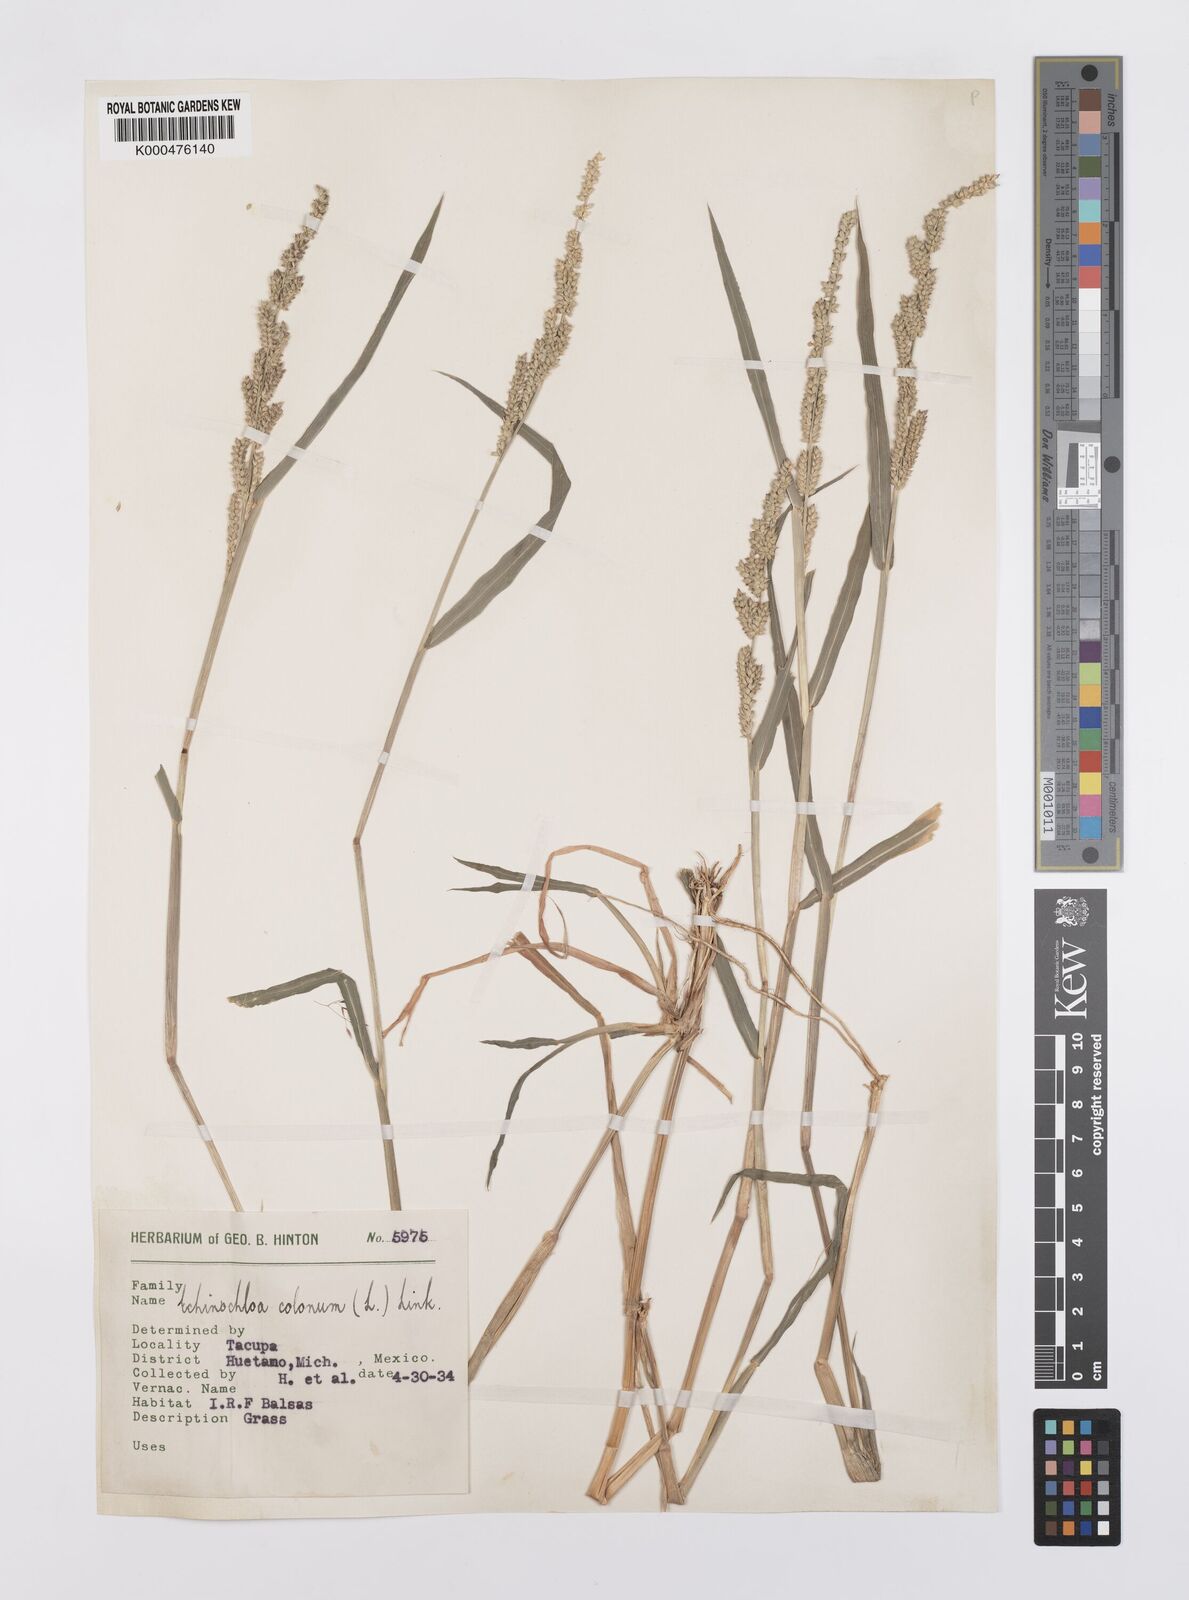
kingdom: Plantae
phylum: Tracheophyta
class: Liliopsida
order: Poales
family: Poaceae
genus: Echinochloa
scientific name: Echinochloa colonum
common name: Jungle rice
